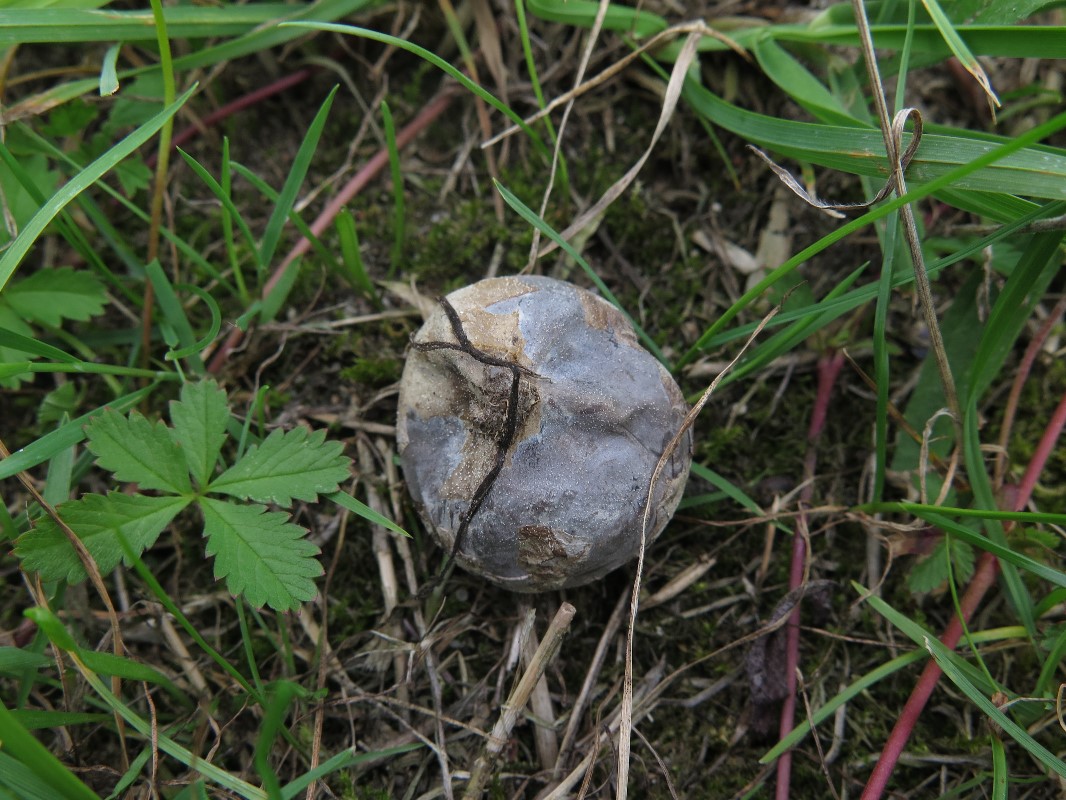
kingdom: Fungi
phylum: Basidiomycota
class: Agaricomycetes
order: Agaricales
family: Lycoperdaceae
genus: Bovista
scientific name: Bovista plumbea
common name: blygrå bovist
